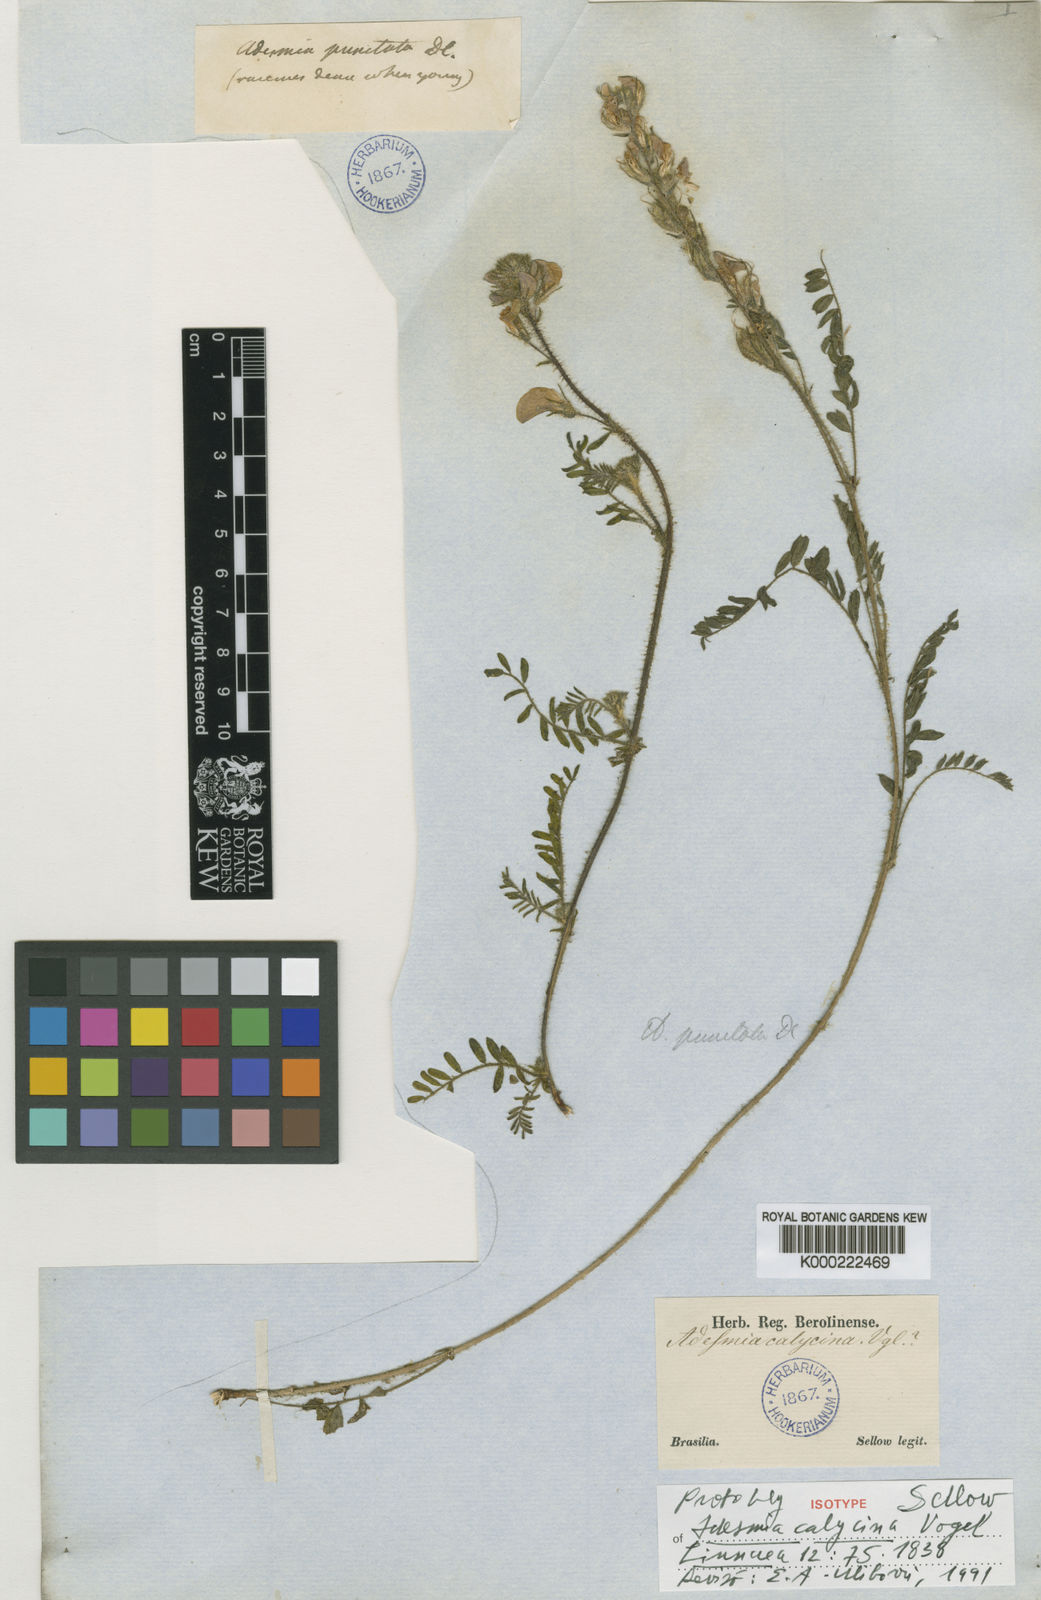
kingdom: Plantae
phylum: Tracheophyta
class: Magnoliopsida
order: Fabales
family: Fabaceae
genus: Adesmia
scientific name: Adesmia punctata
